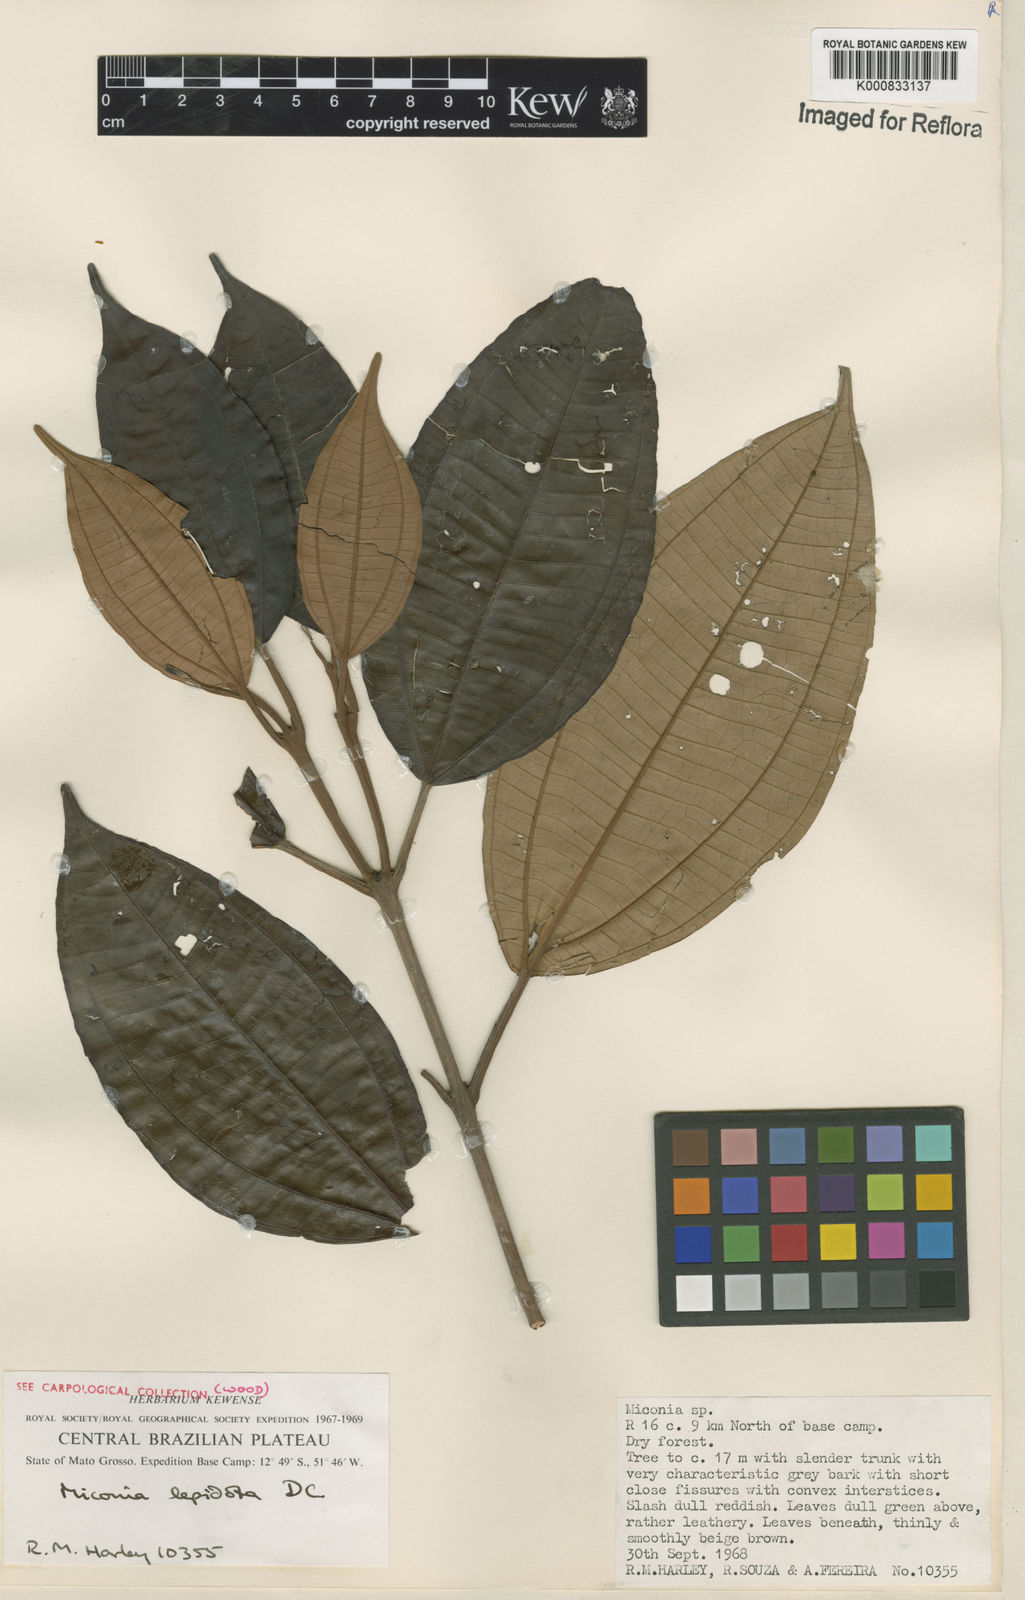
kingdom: Plantae
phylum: Tracheophyta
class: Magnoliopsida
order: Myrtales
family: Melastomataceae
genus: Miconia
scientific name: Miconia lepidota
